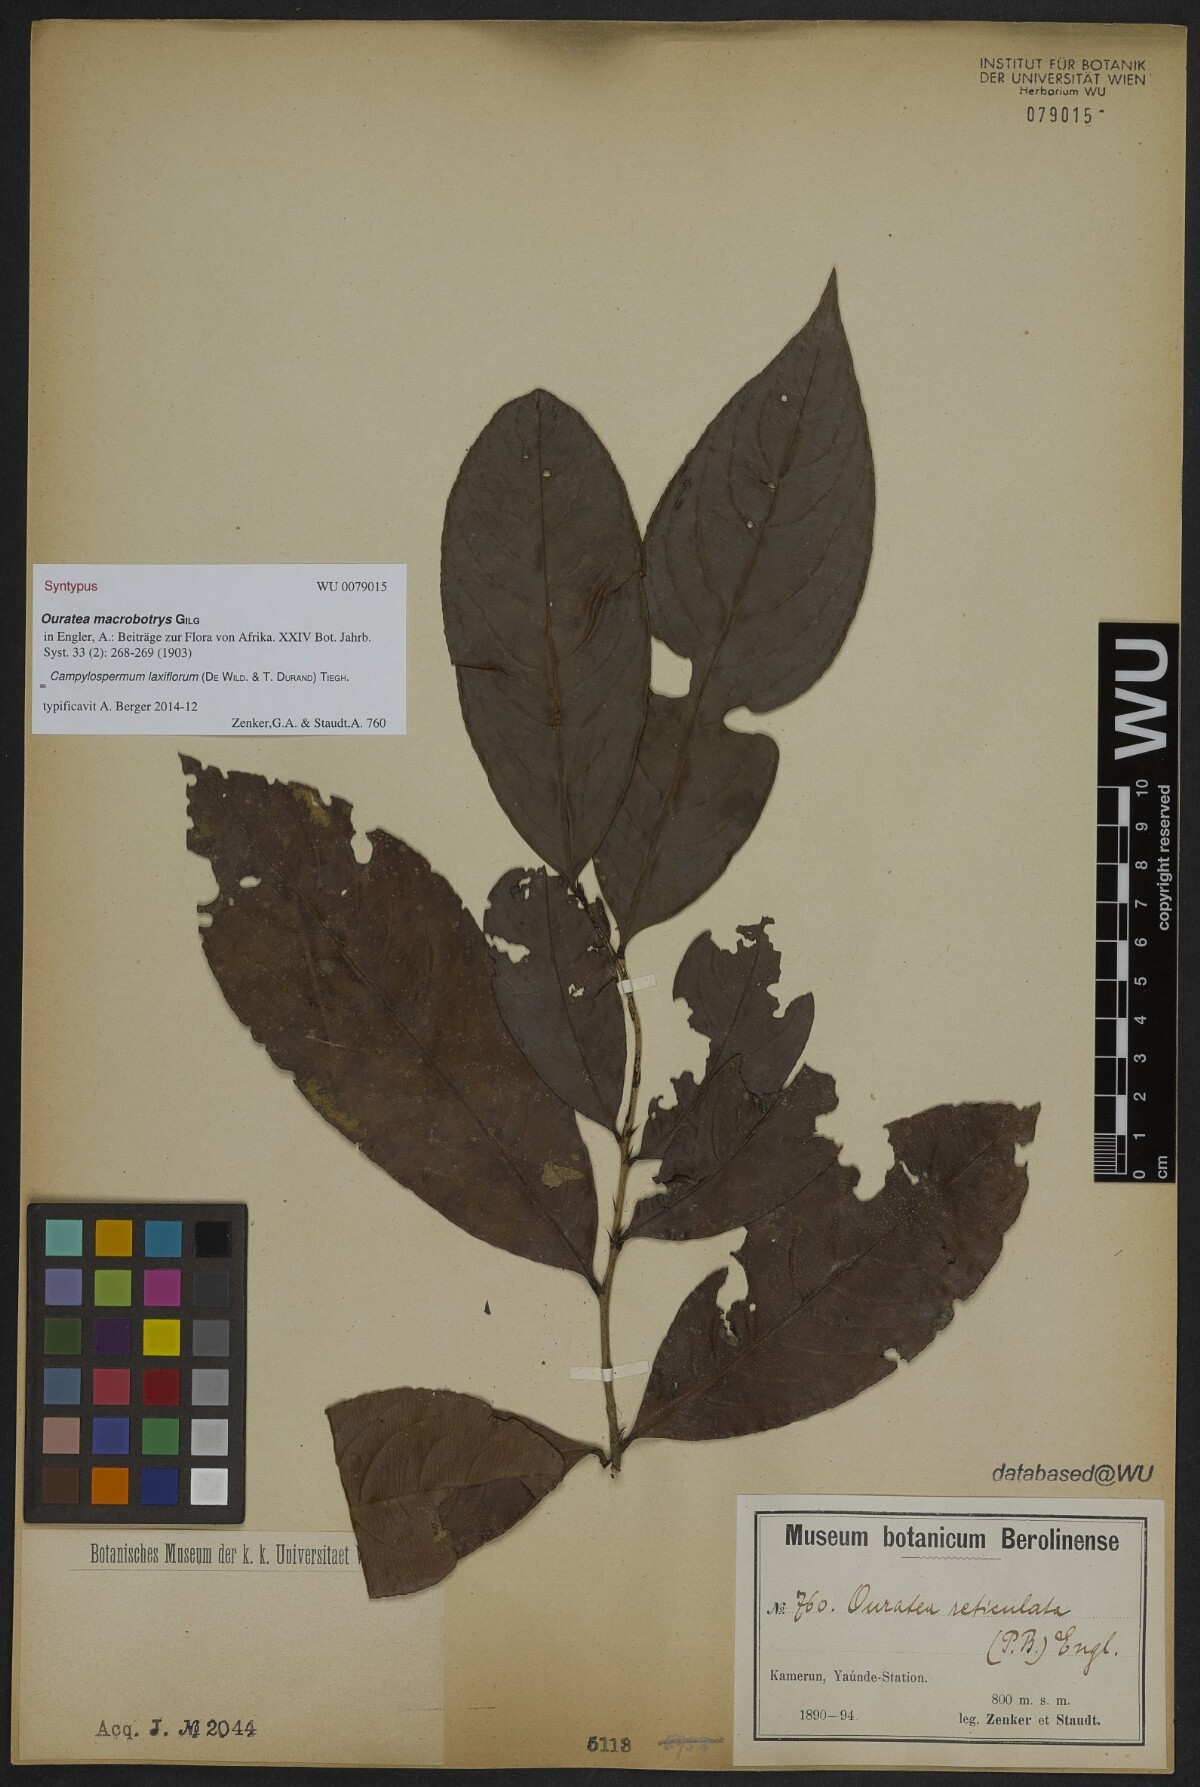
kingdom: Plantae
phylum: Tracheophyta
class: Magnoliopsida
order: Malpighiales
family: Ochnaceae
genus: Campylospermum
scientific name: Campylospermum laxiflorum
